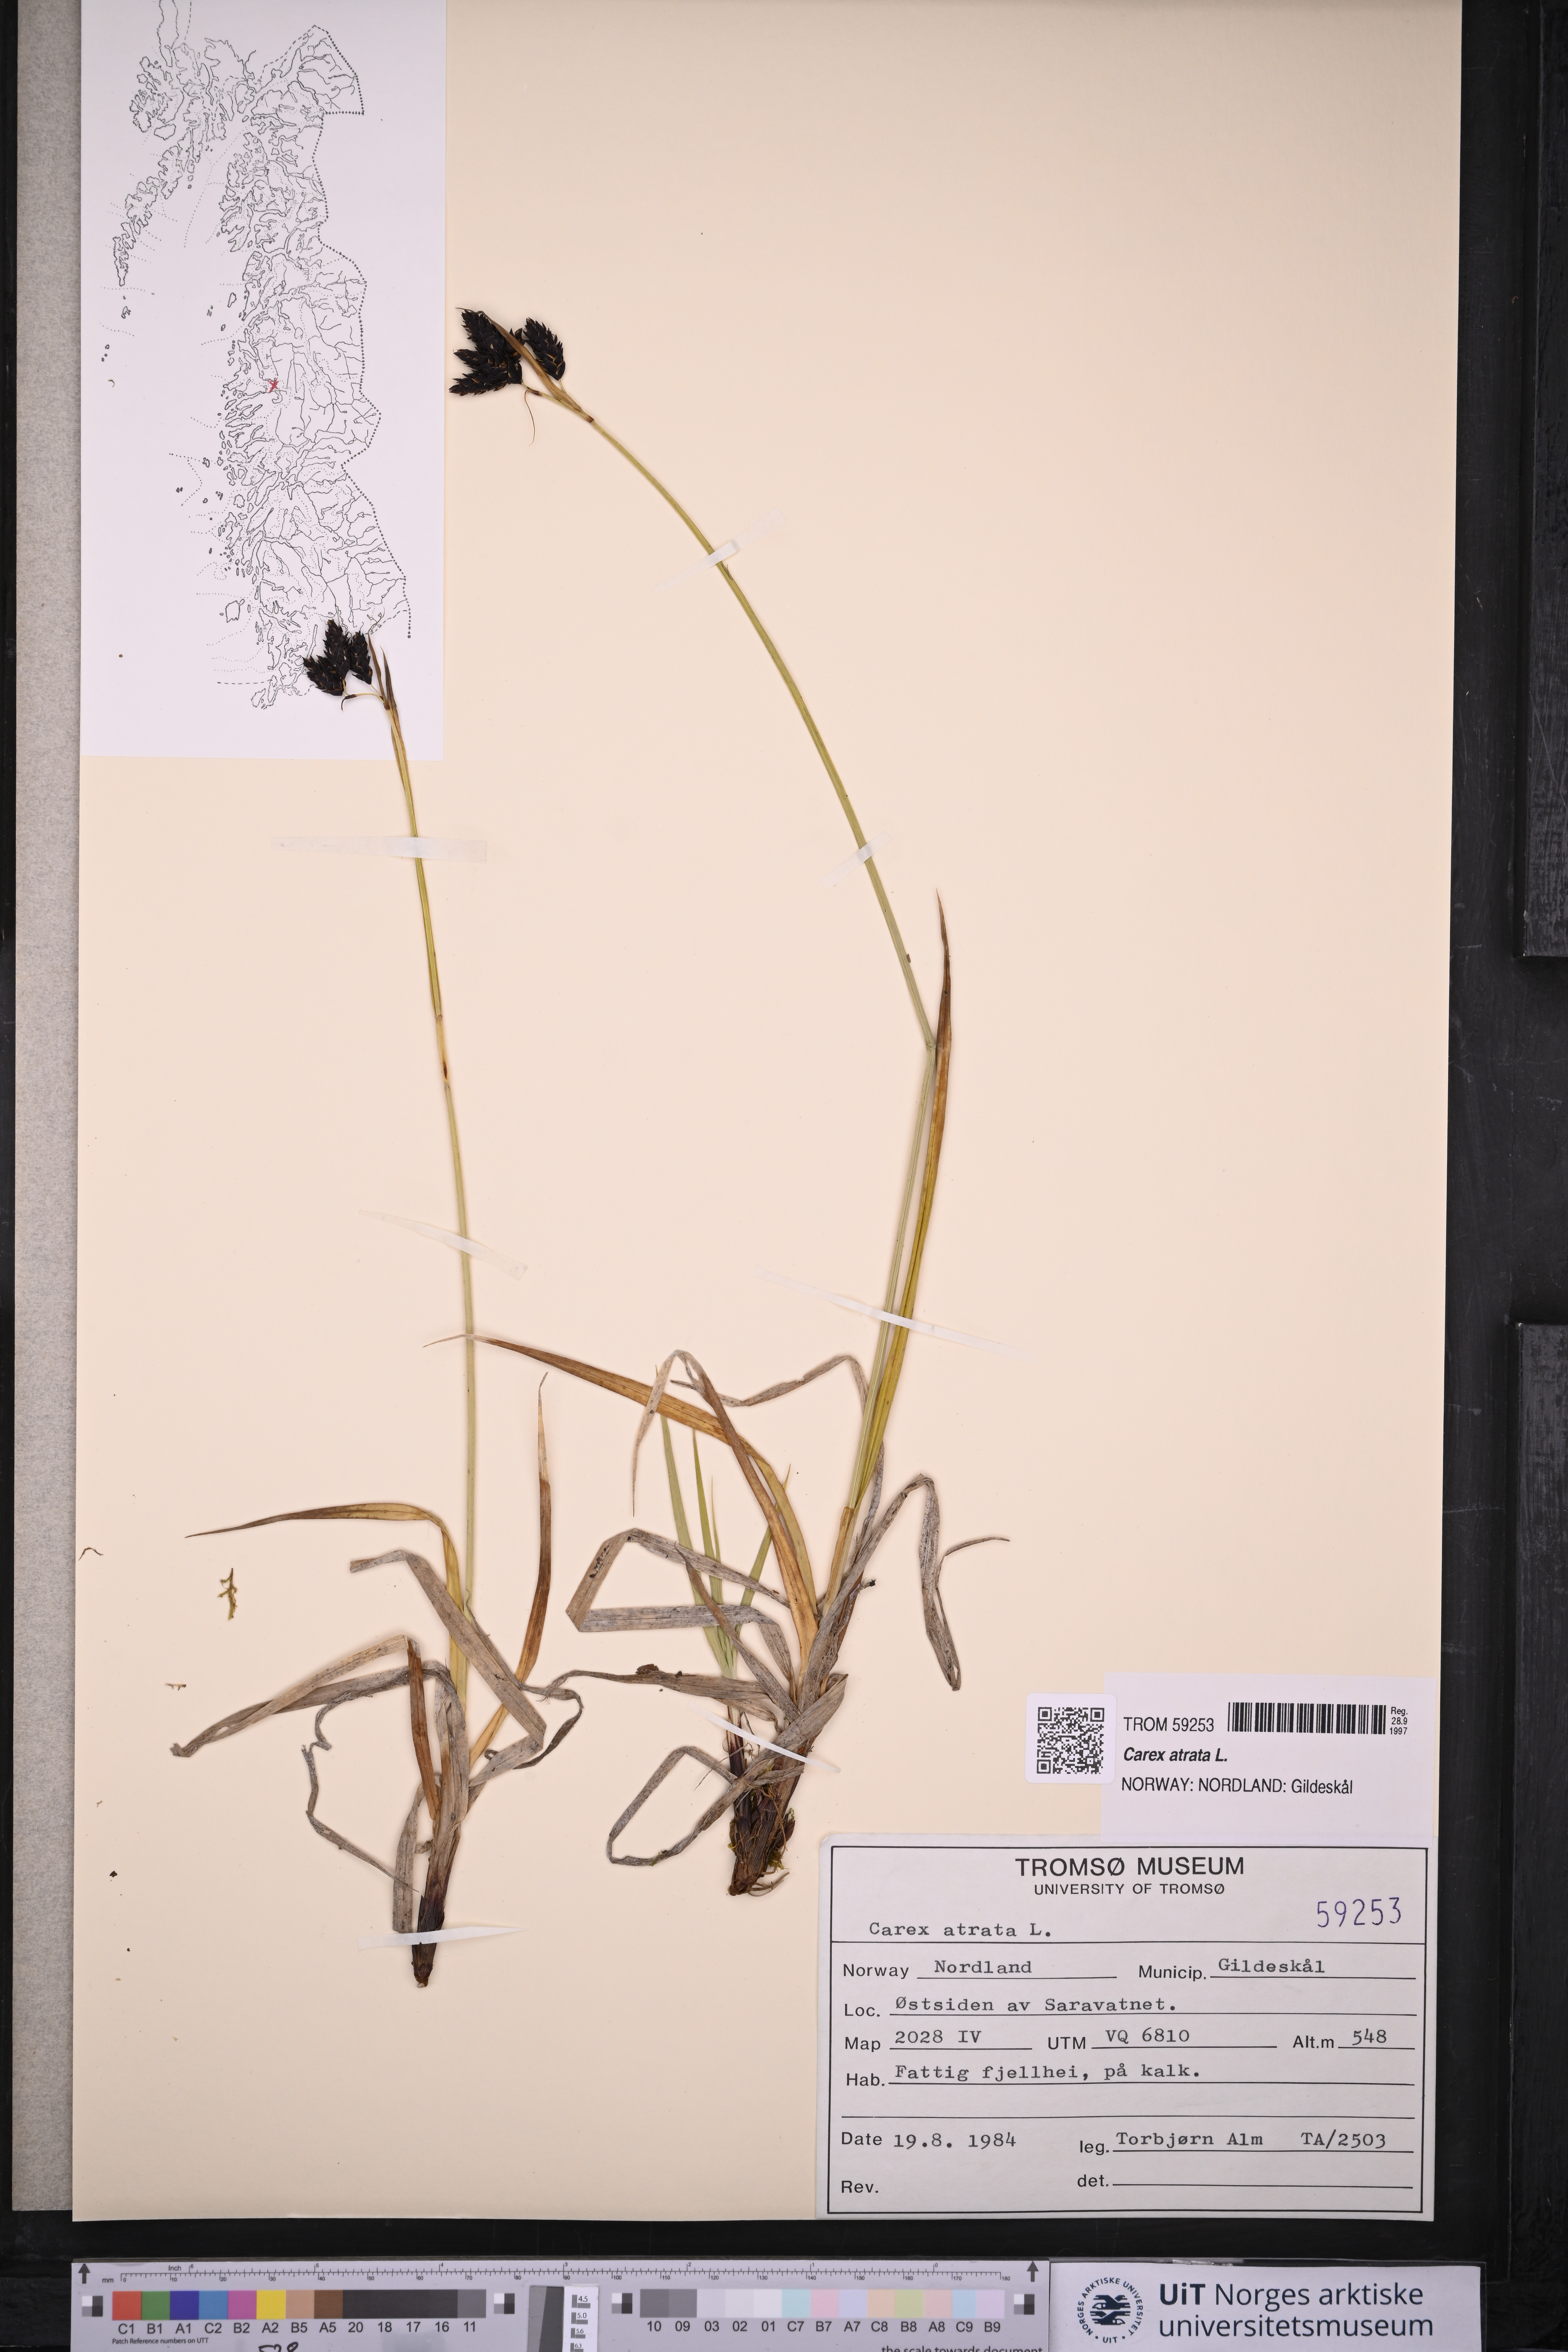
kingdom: Plantae
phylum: Tracheophyta
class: Liliopsida
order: Poales
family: Cyperaceae
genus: Carex
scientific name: Carex atrata
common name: Black alpine sedge
